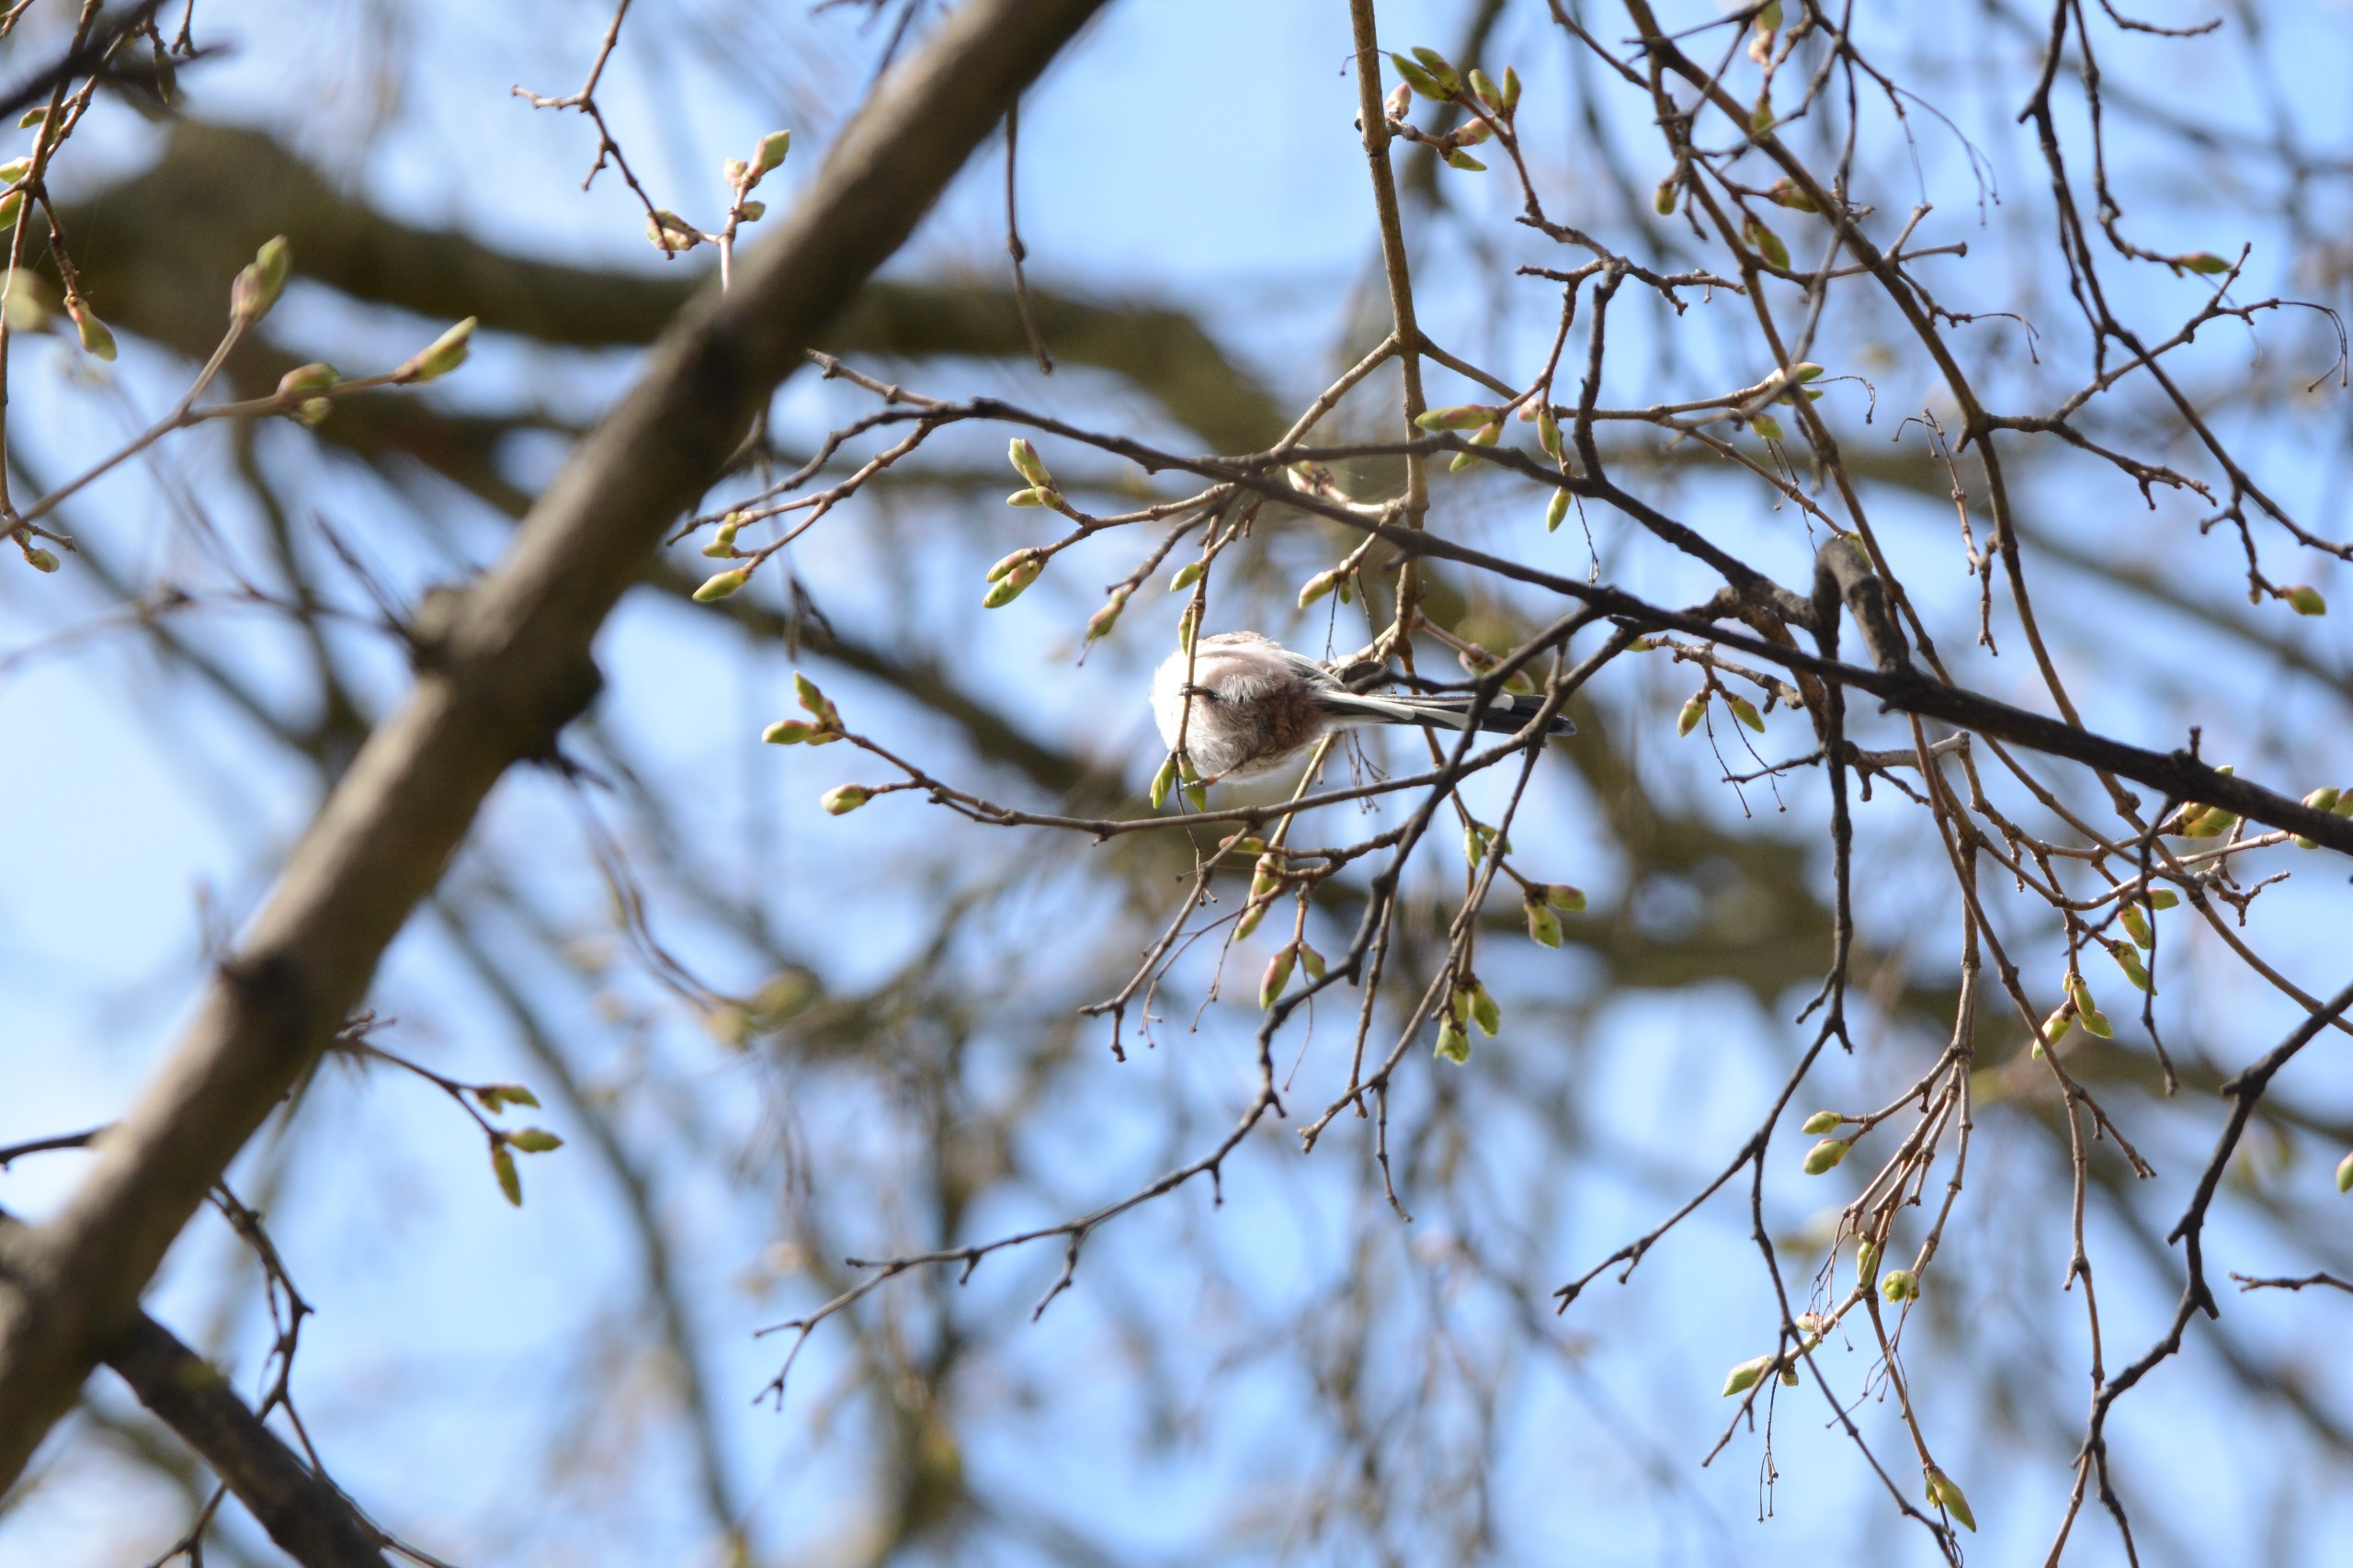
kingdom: Animalia
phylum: Chordata
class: Aves
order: Passeriformes
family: Aegithalidae
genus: Aegithalos
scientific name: Aegithalos caudatus
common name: Halemejse
